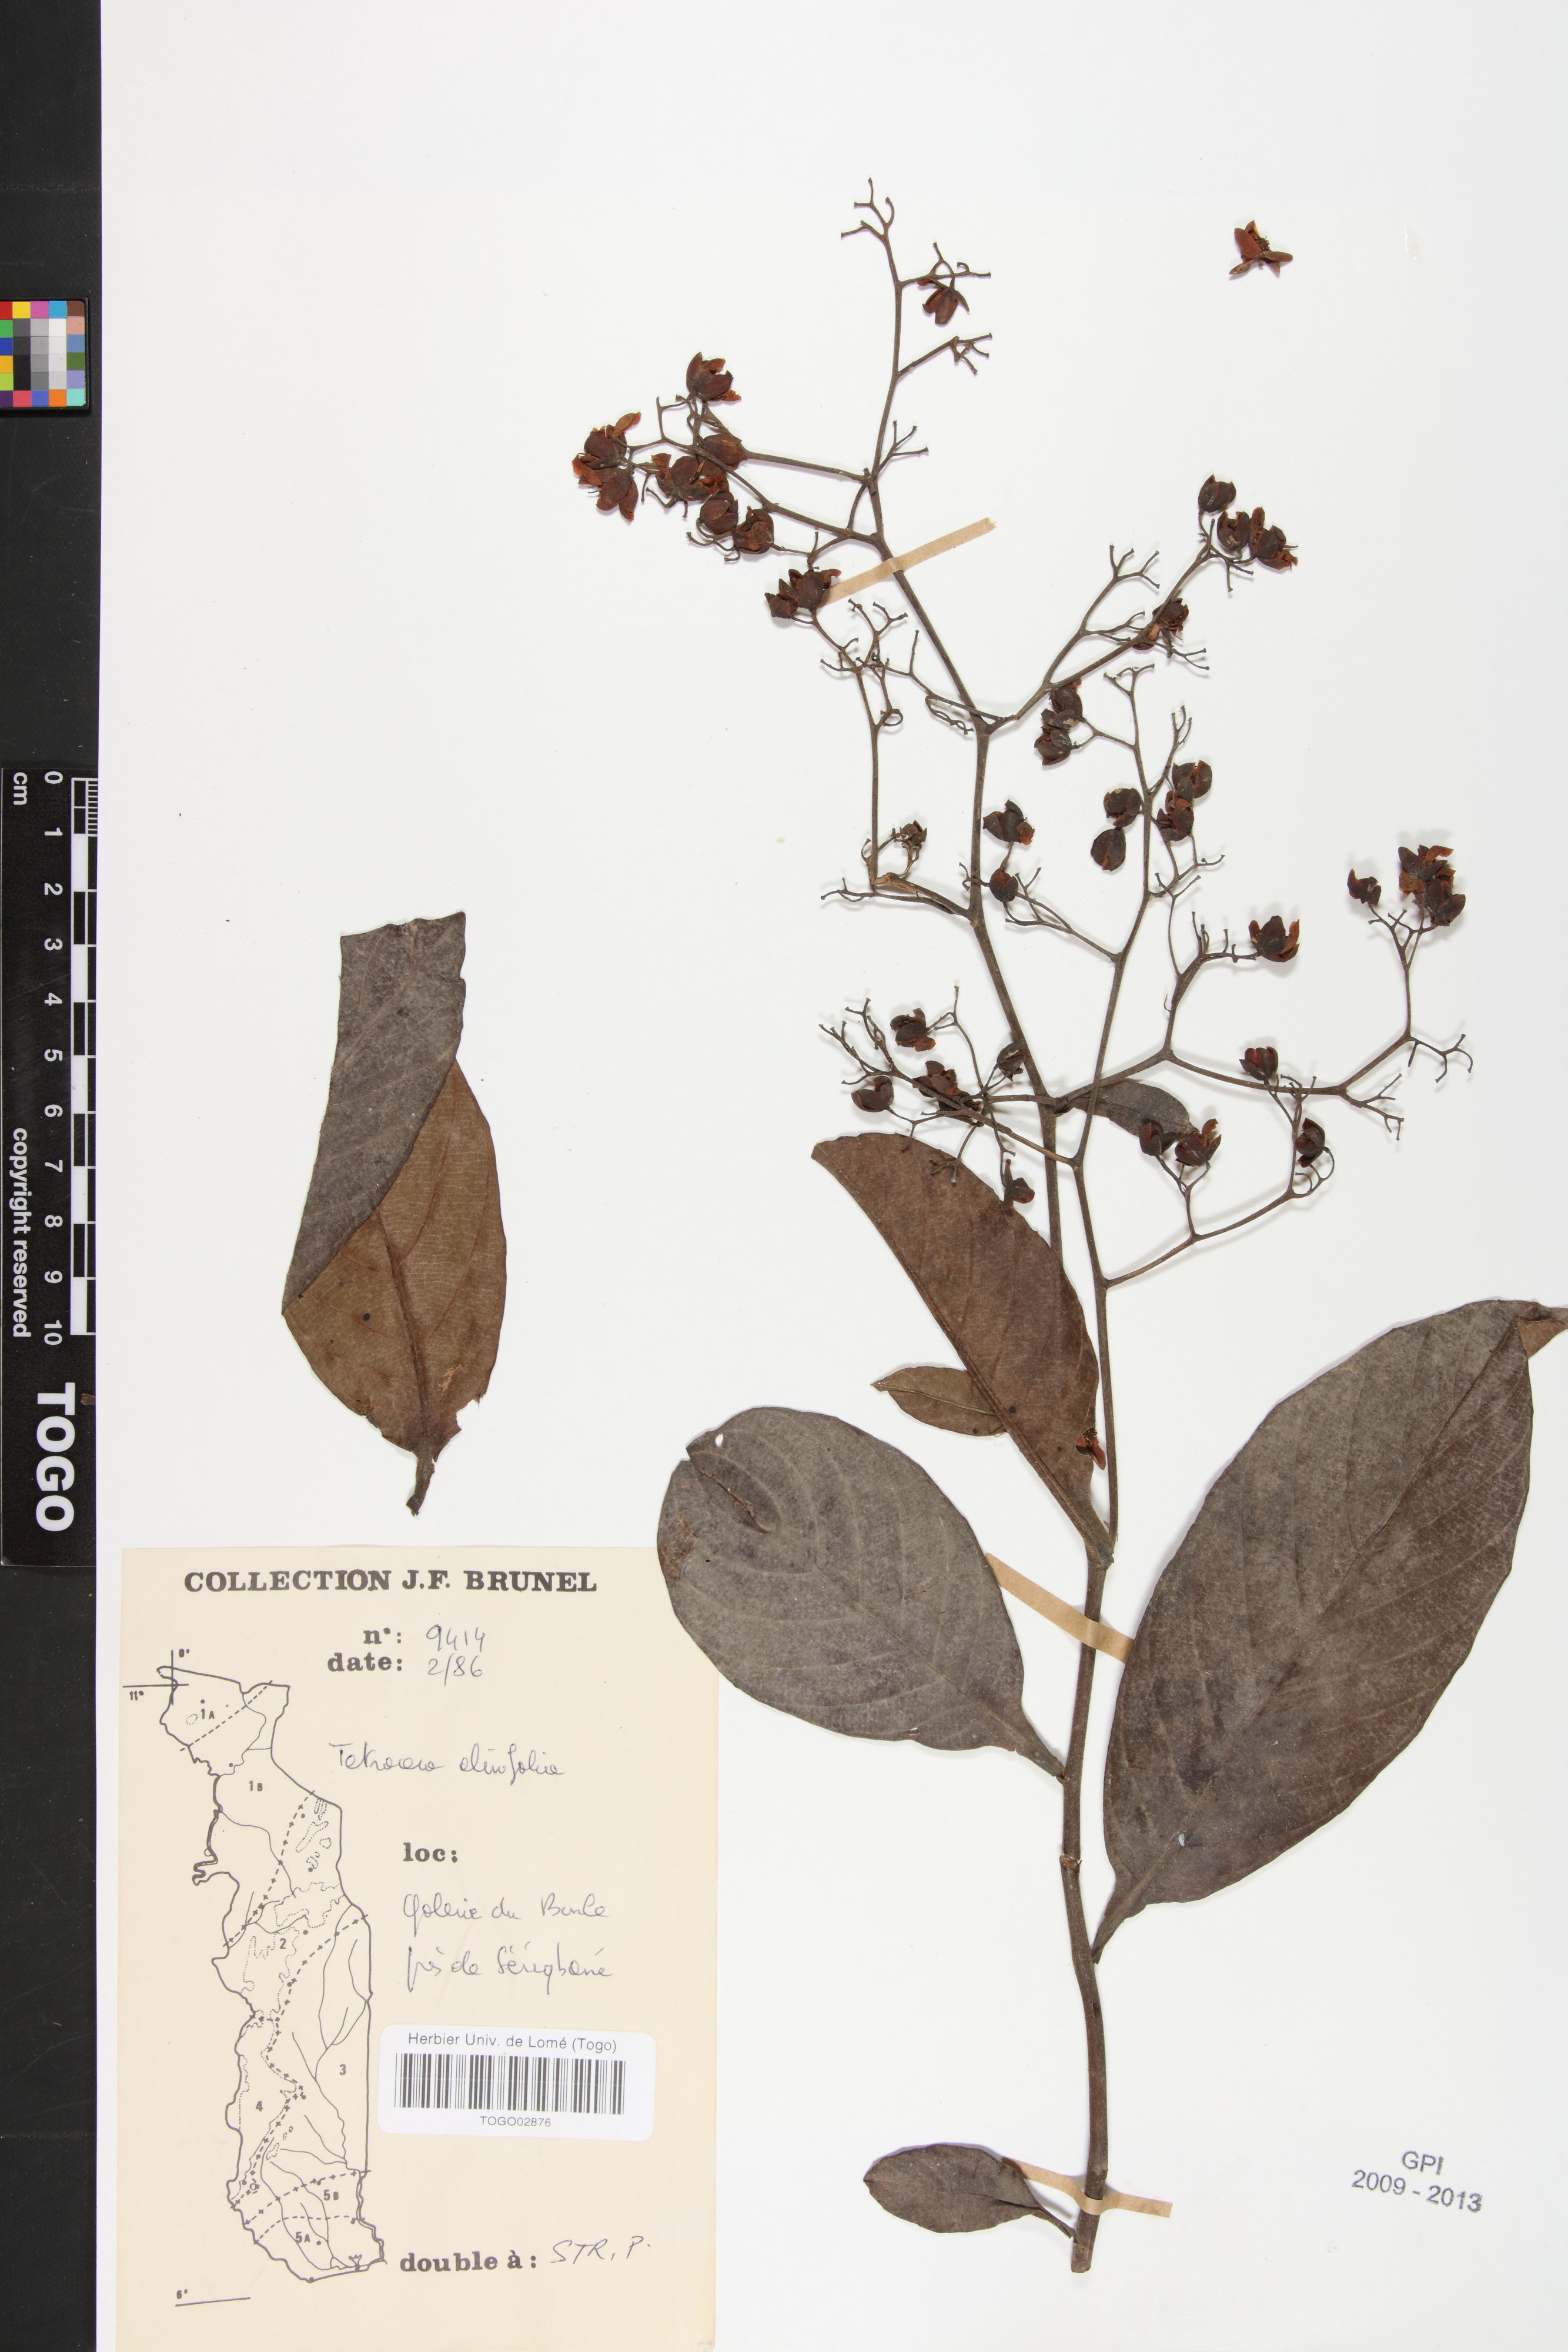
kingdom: Plantae
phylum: Tracheophyta
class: Magnoliopsida
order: Dilleniales
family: Dilleniaceae
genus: Tetracera
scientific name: Tetracera alnifolia
